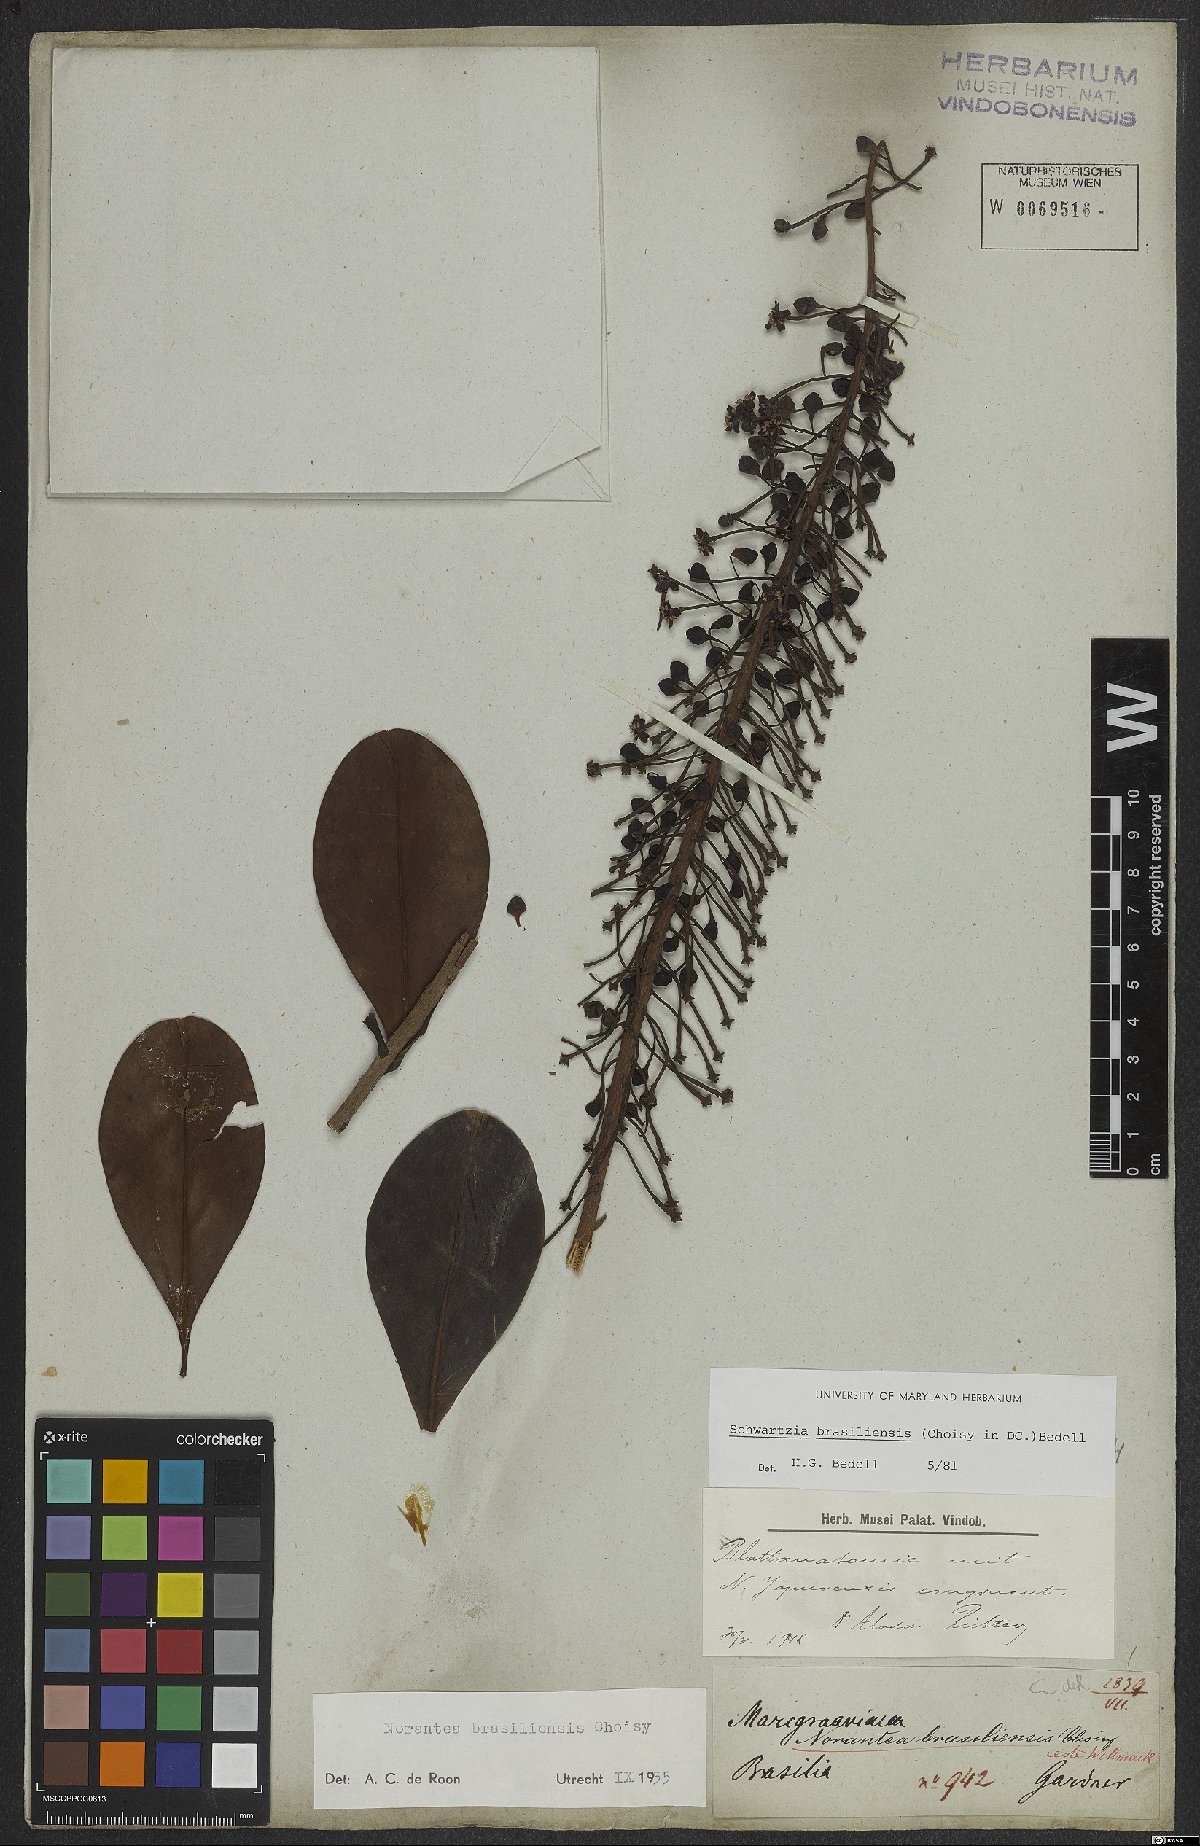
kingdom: Plantae
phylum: Tracheophyta
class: Magnoliopsida
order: Ericales
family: Marcgraviaceae
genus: Schwartzia
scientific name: Schwartzia brasiliensis
